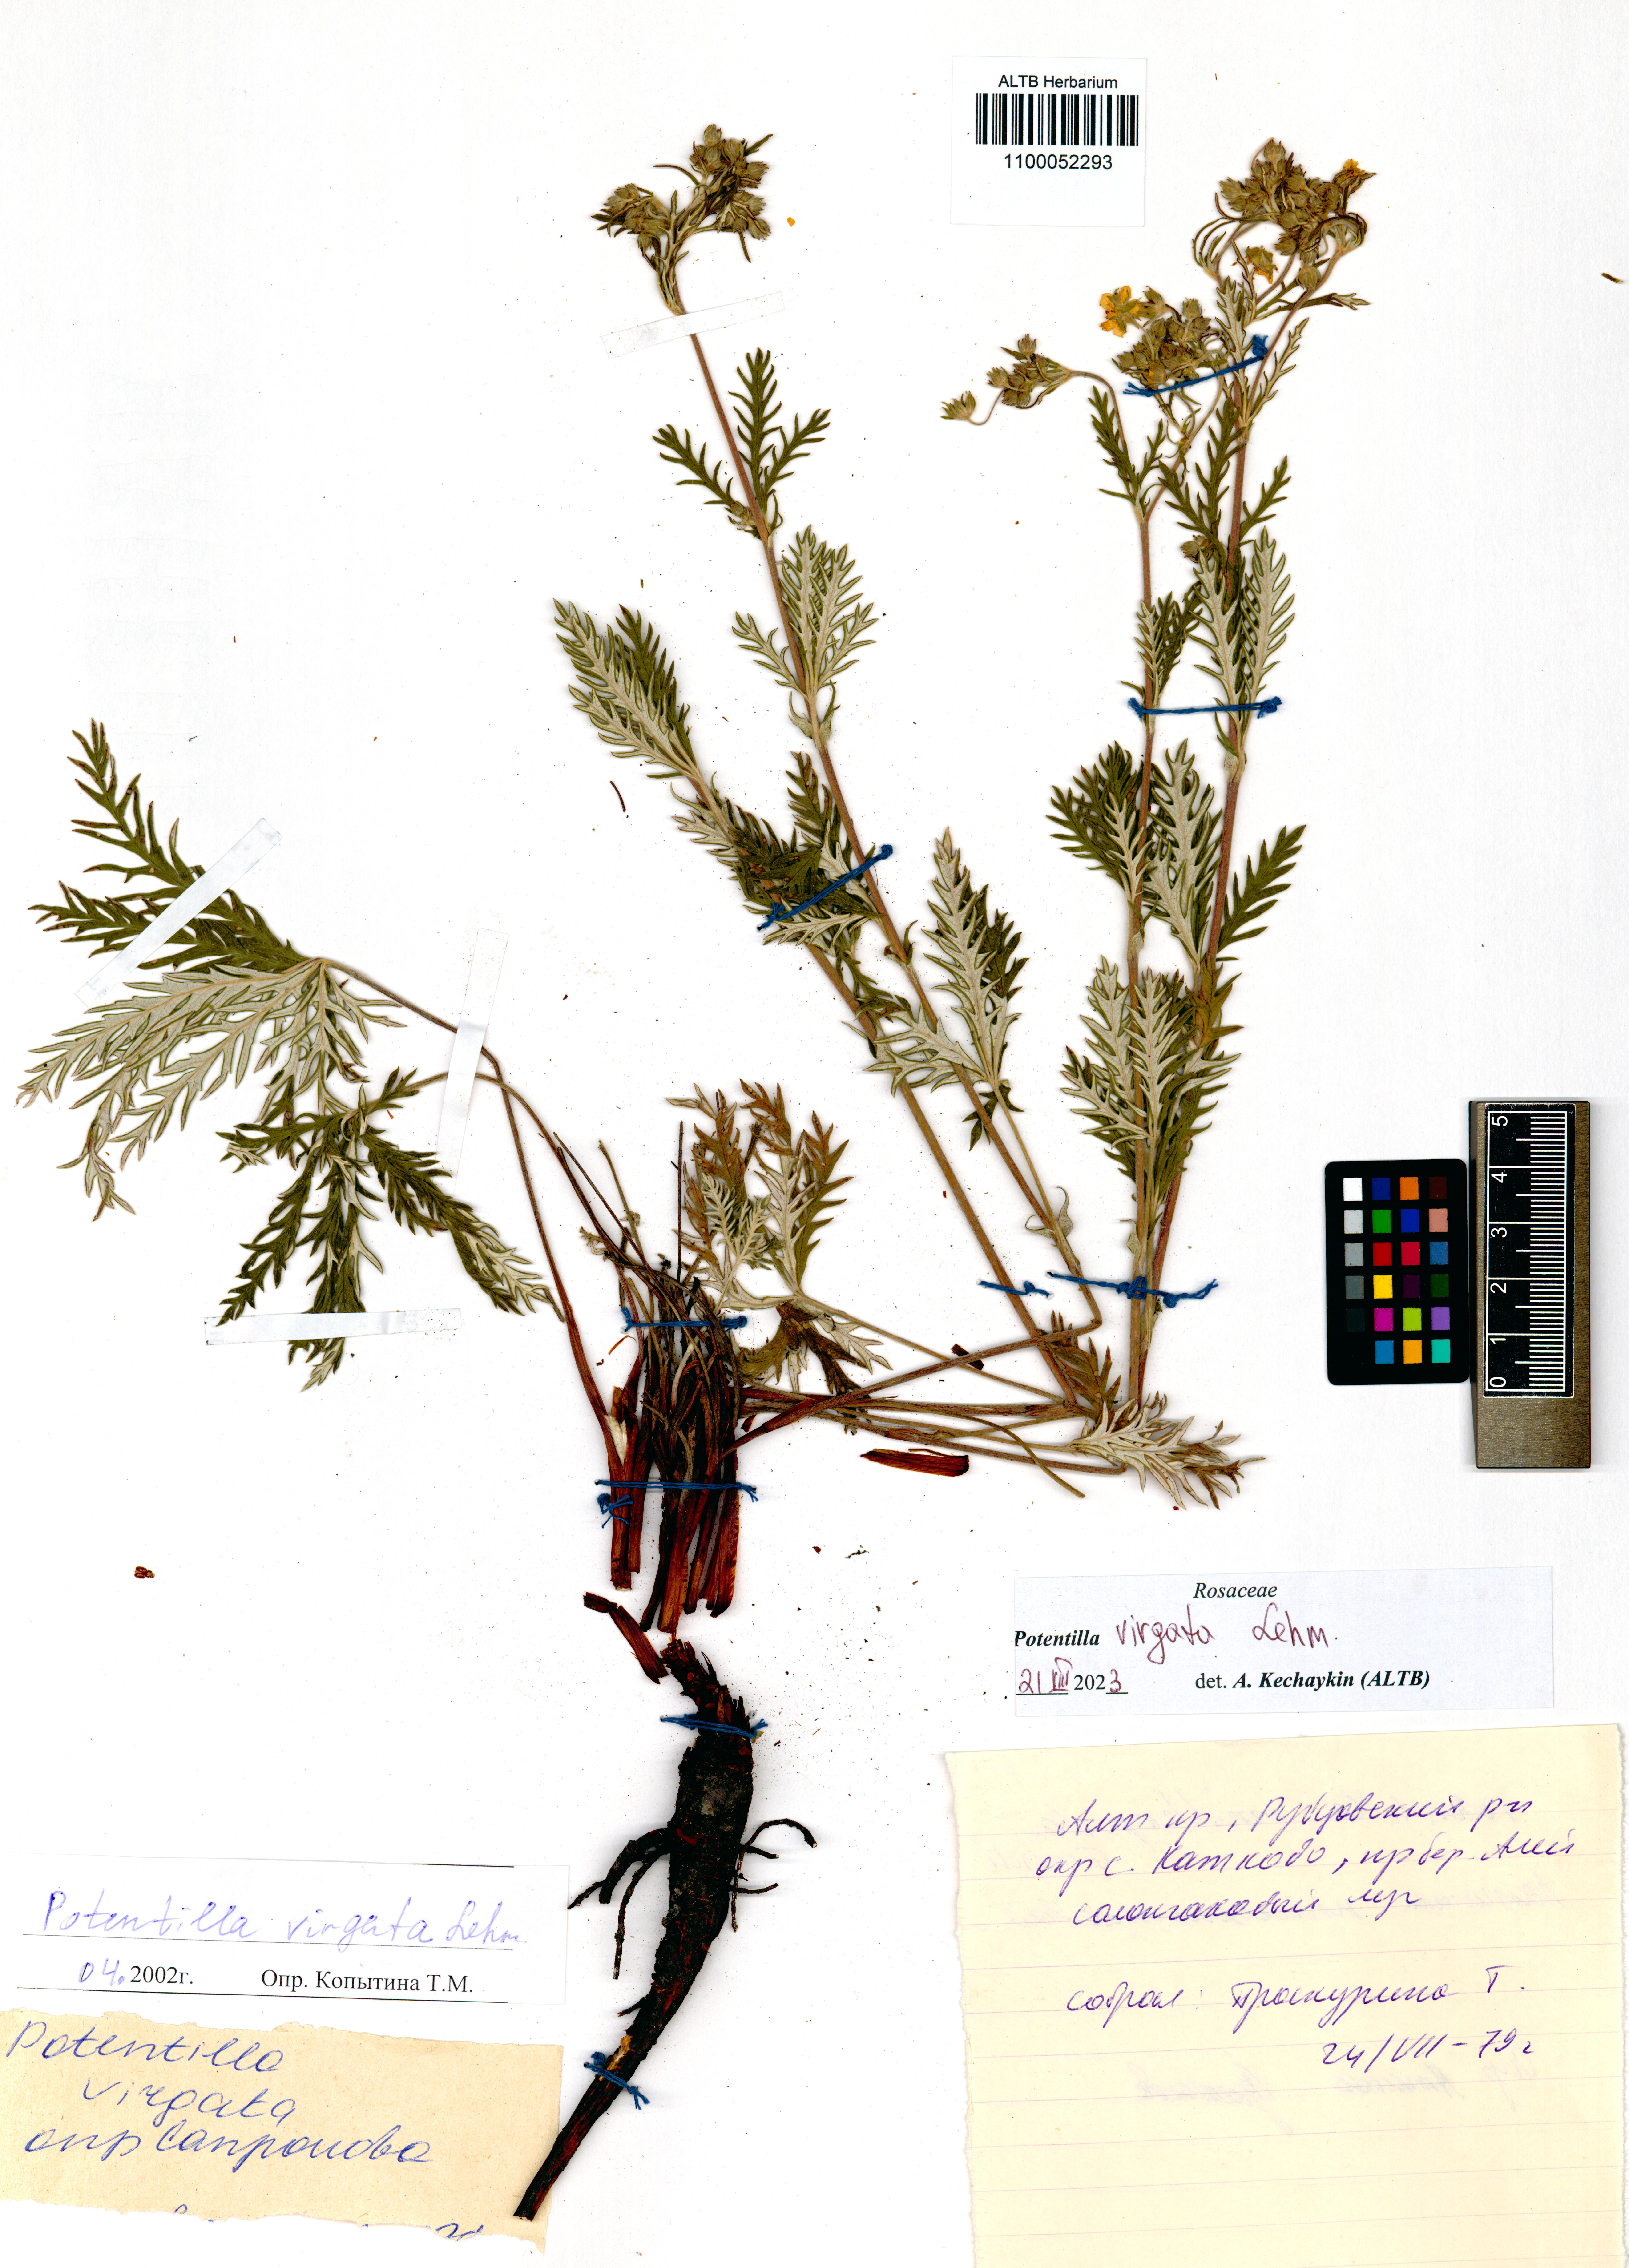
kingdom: Plantae
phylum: Tracheophyta
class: Magnoliopsida
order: Rosales
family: Rosaceae
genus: Potentilla
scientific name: Potentilla virgata
